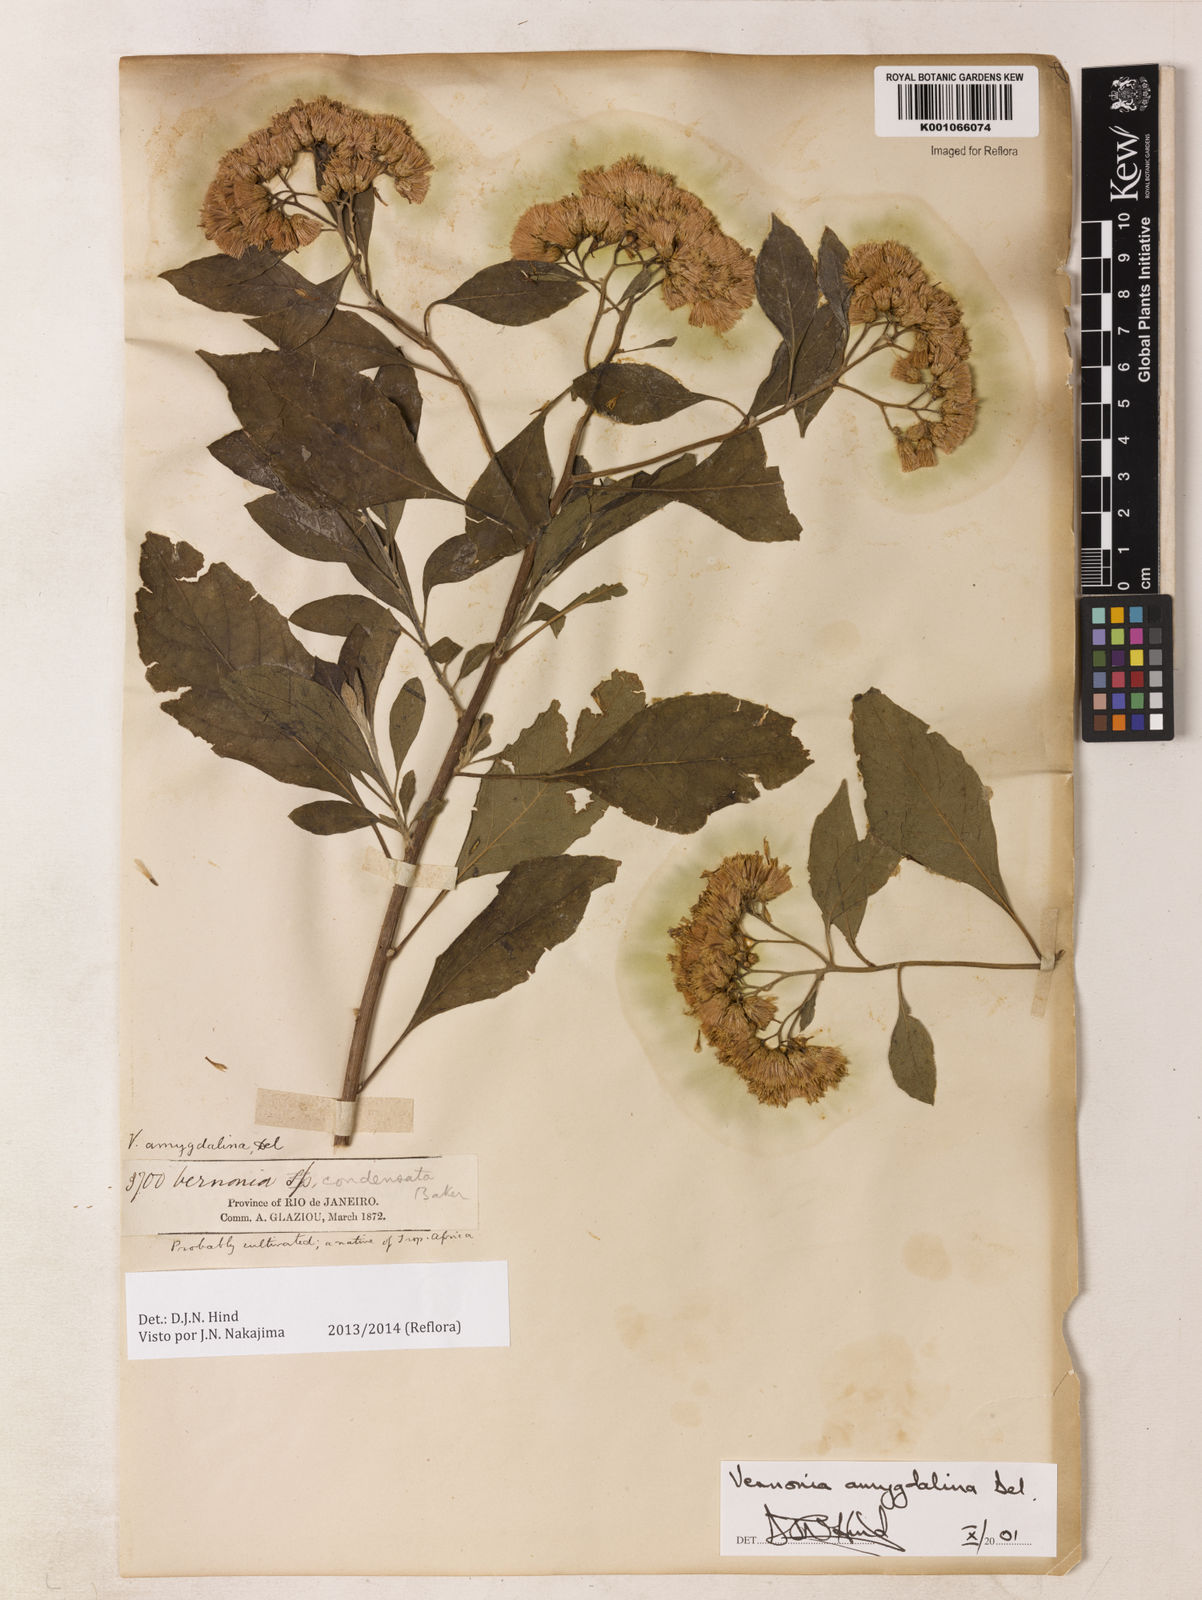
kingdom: Plantae
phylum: Tracheophyta
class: Magnoliopsida
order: Asterales
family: Asteraceae
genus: Gymnanthemum
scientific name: Gymnanthemum amygdalinum
